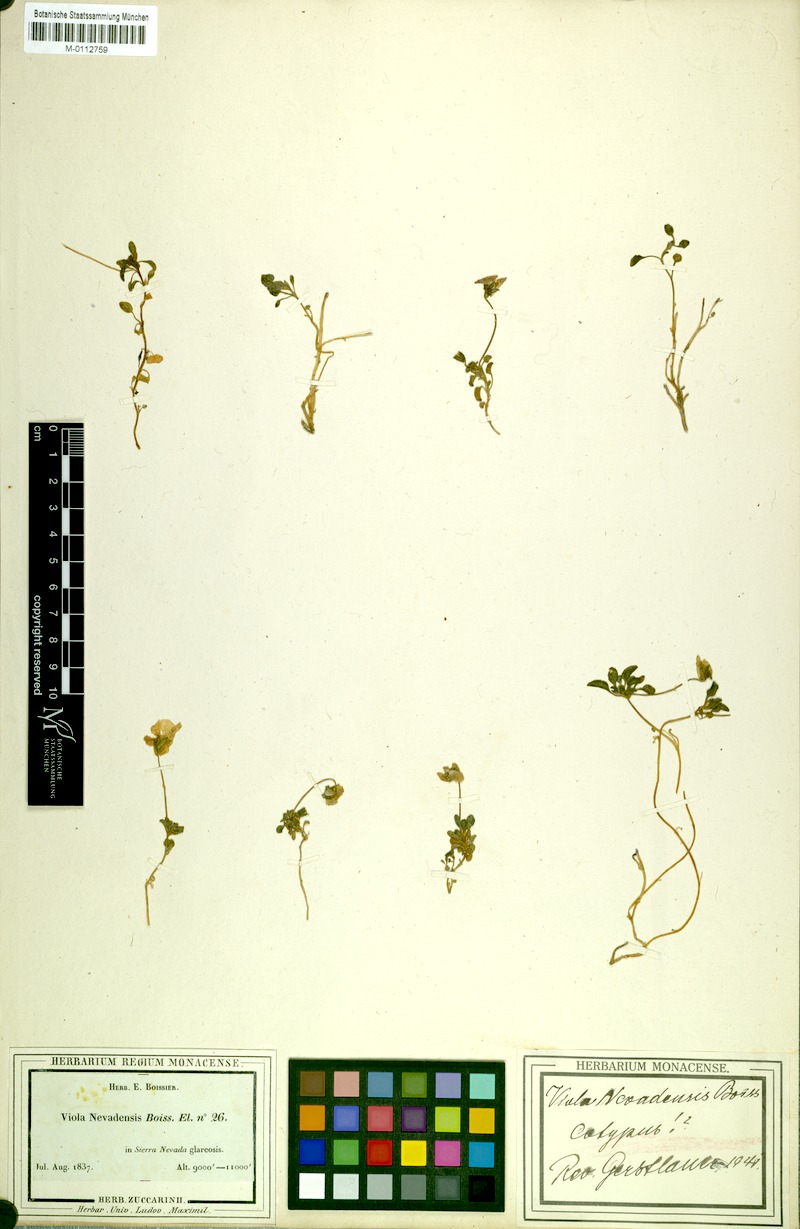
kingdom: Plantae
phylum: Tracheophyta
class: Magnoliopsida
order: Malpighiales
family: Violaceae
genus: Viola
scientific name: Viola crassiuscula
